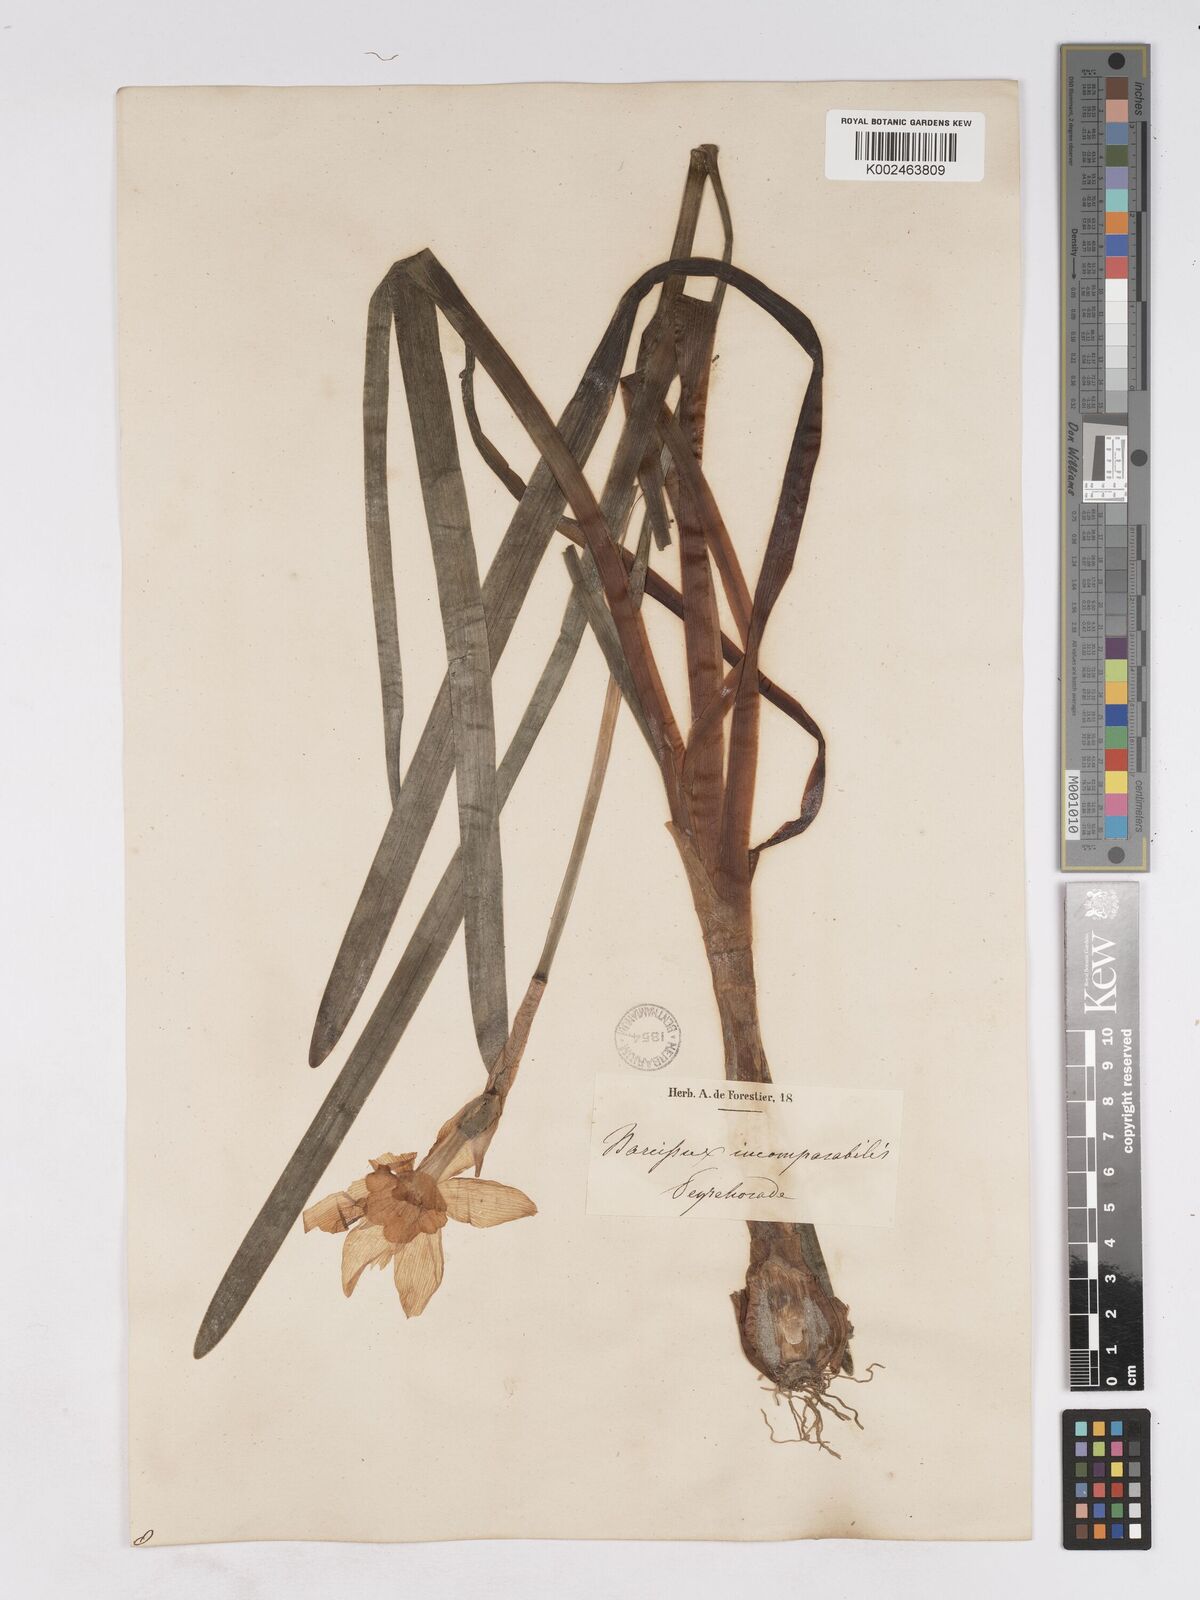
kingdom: Plantae
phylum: Tracheophyta
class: Liliopsida
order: Asparagales
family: Amaryllidaceae
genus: Narcissus
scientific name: Narcissus incomparabilis
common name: Nonesuch daffodil
